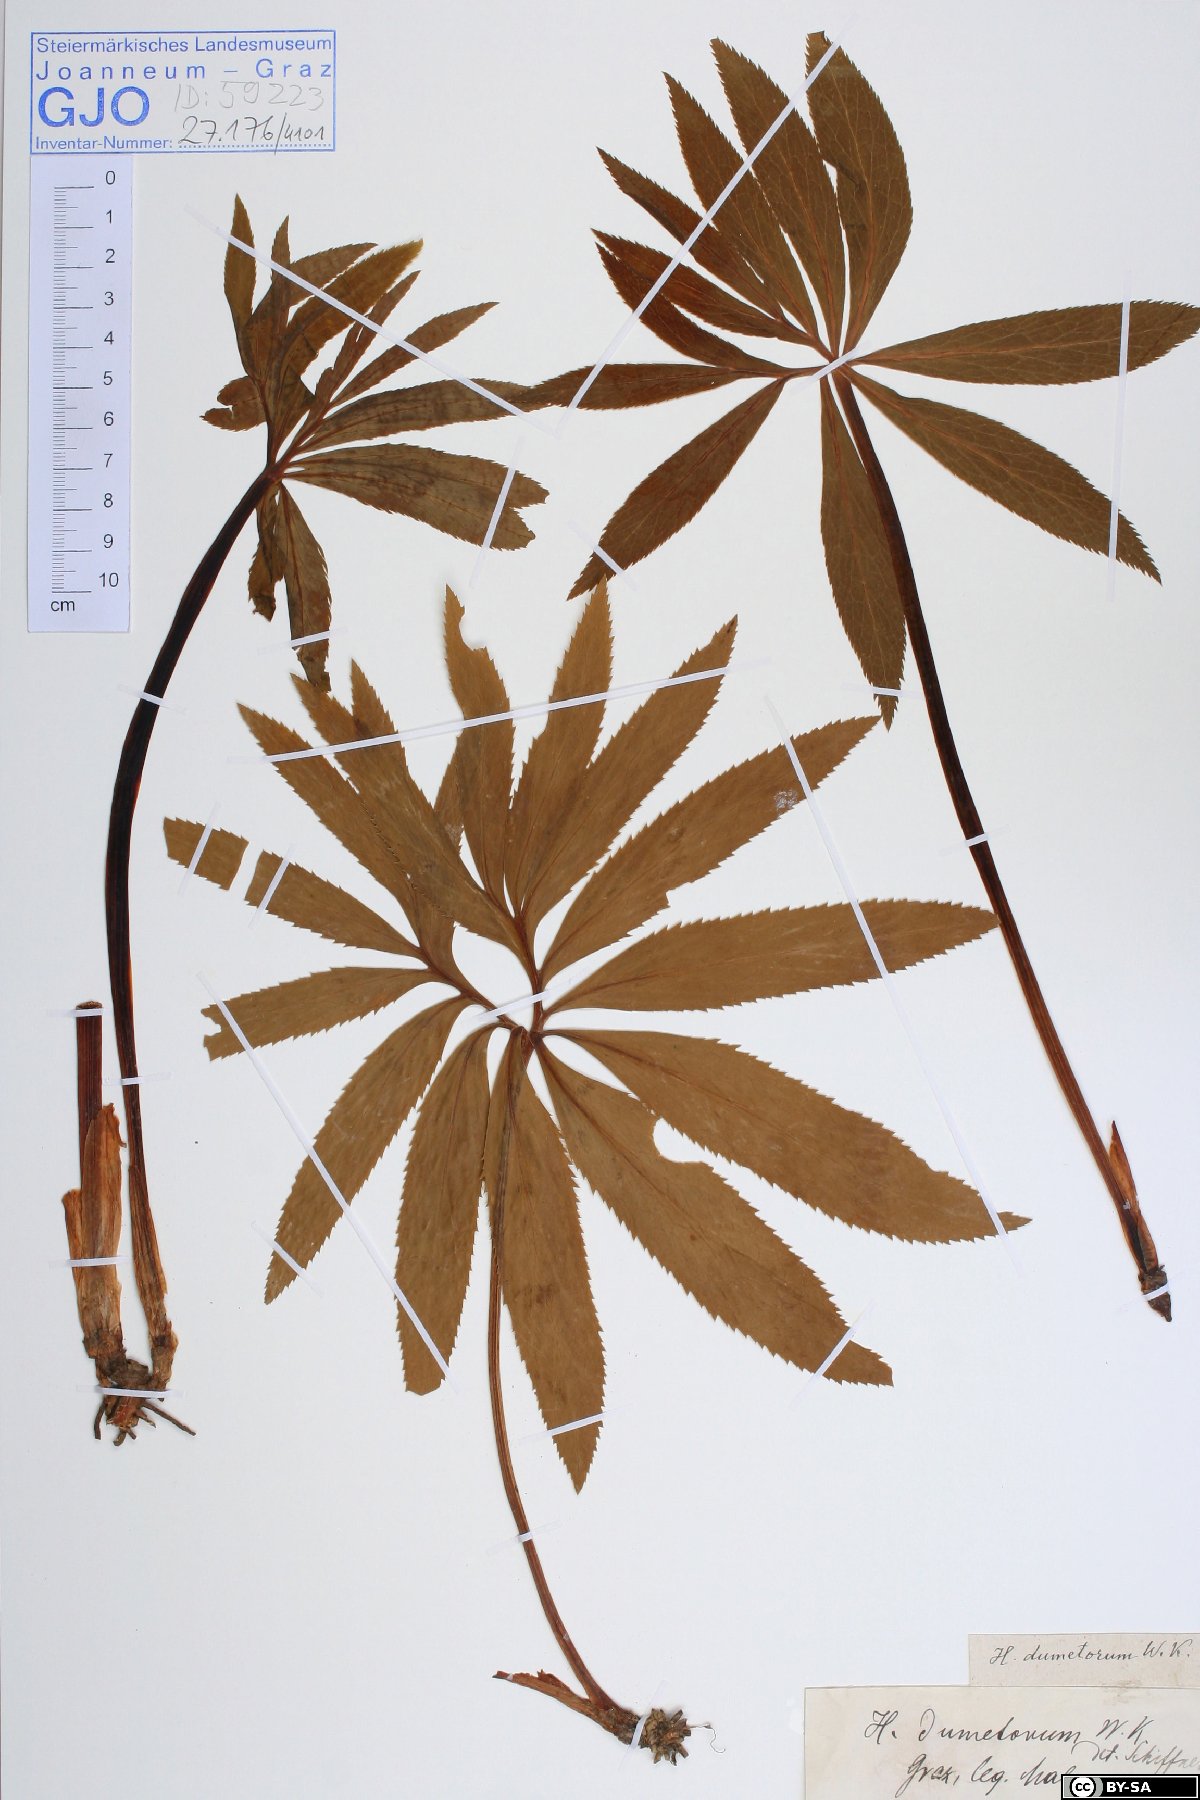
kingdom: Plantae
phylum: Tracheophyta
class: Magnoliopsida
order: Ranunculales
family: Ranunculaceae
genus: Helleborus
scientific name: Helleborus dumetorum
